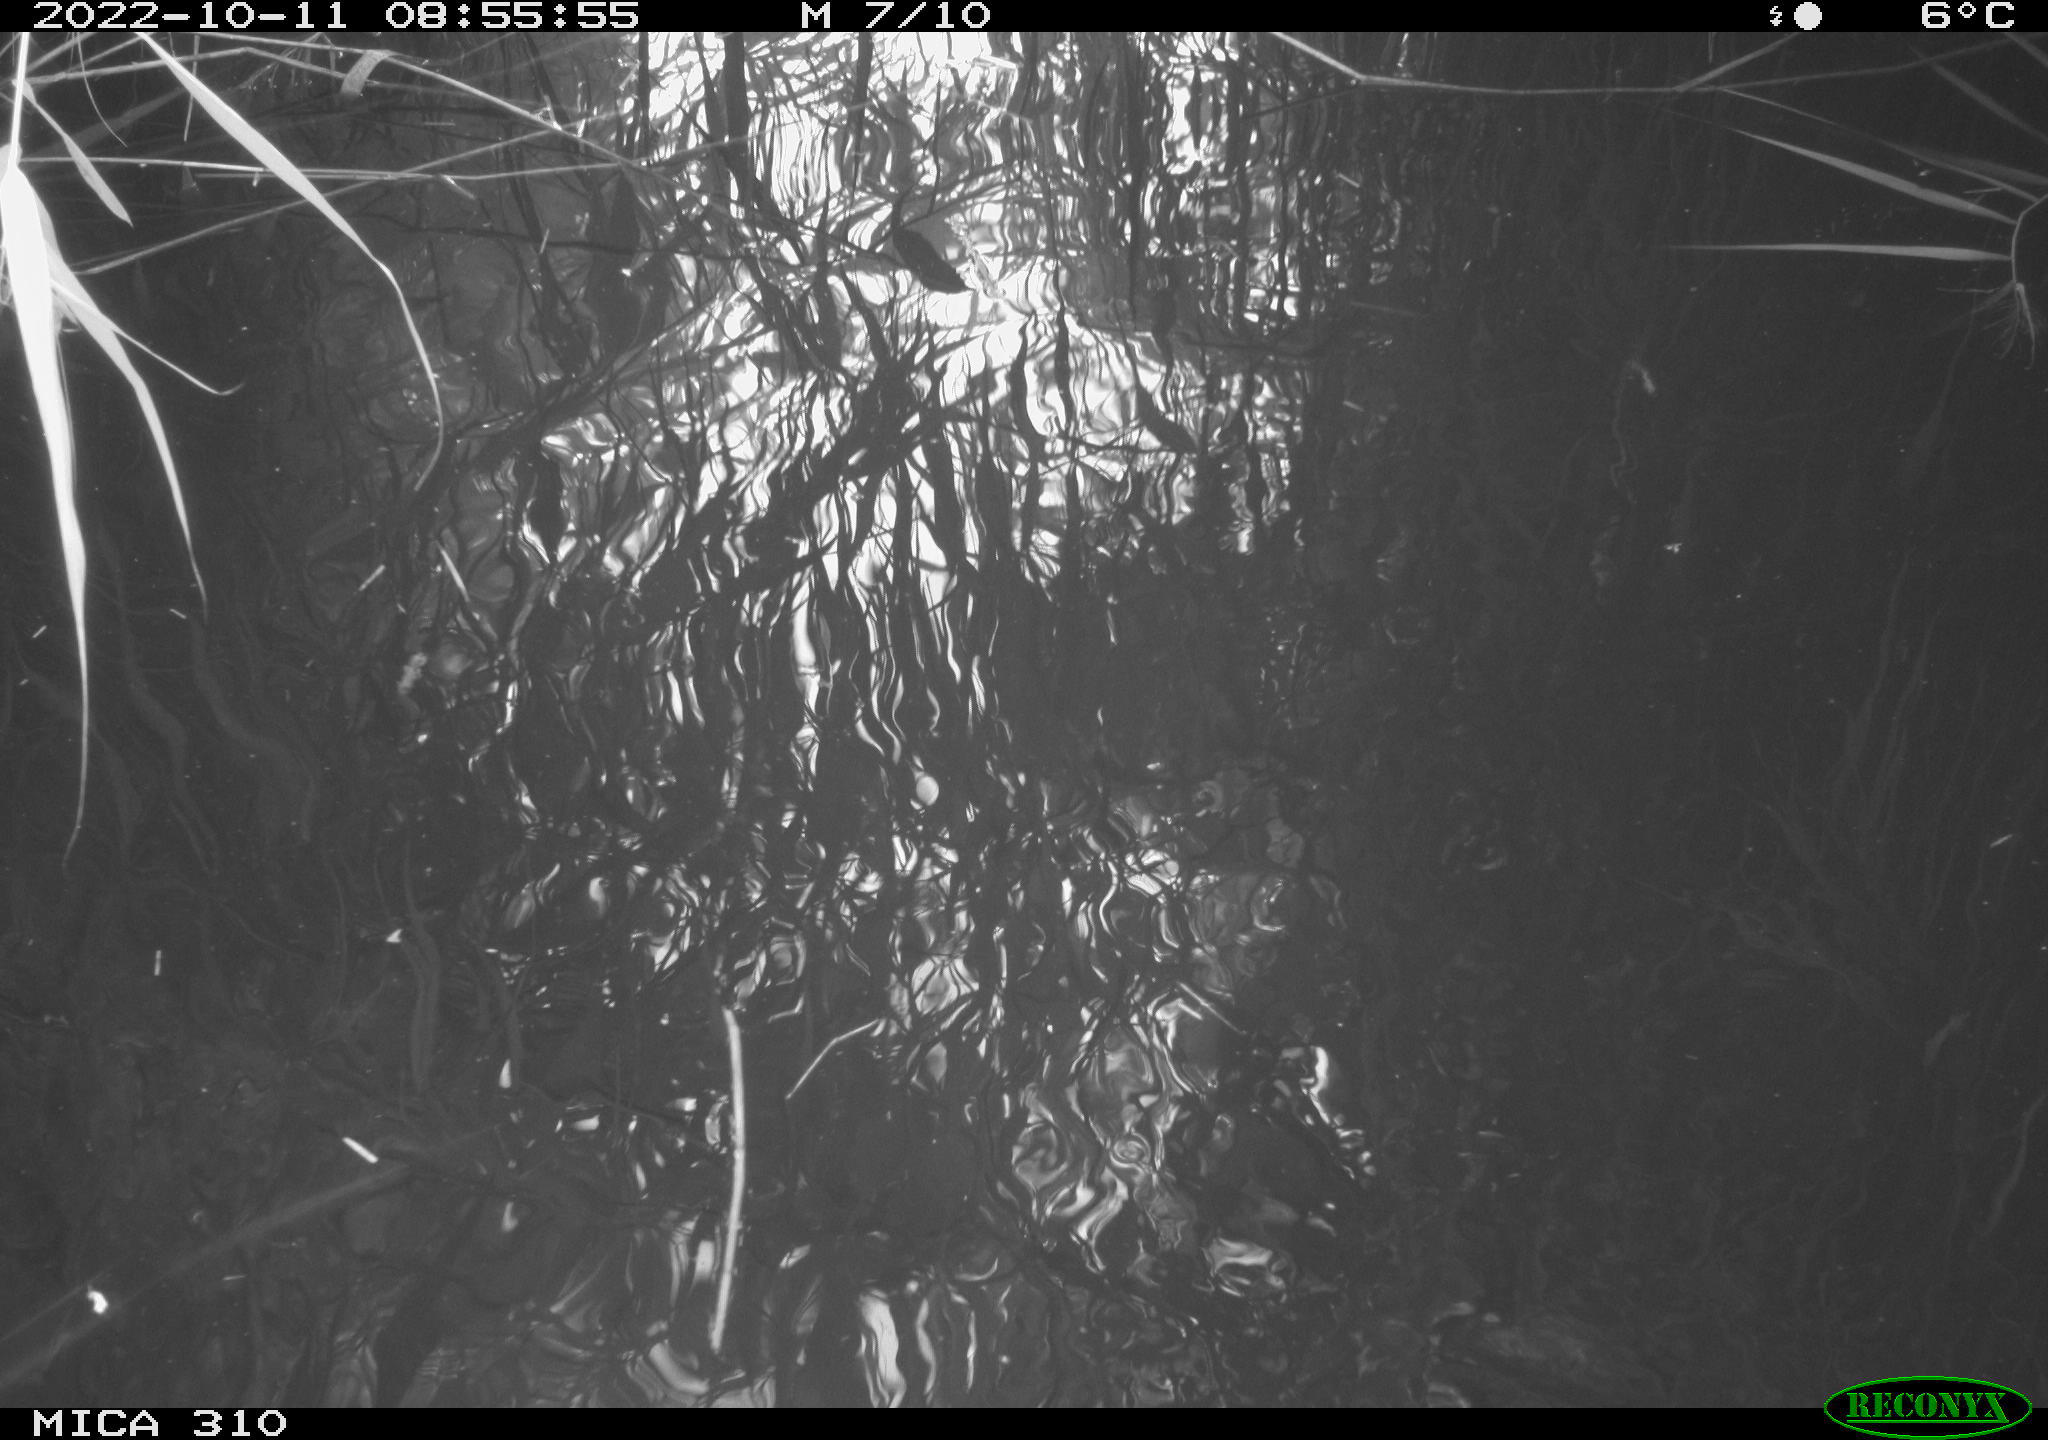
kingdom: Animalia
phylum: Chordata
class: Aves
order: Anseriformes
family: Anatidae
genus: Anas
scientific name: Anas
